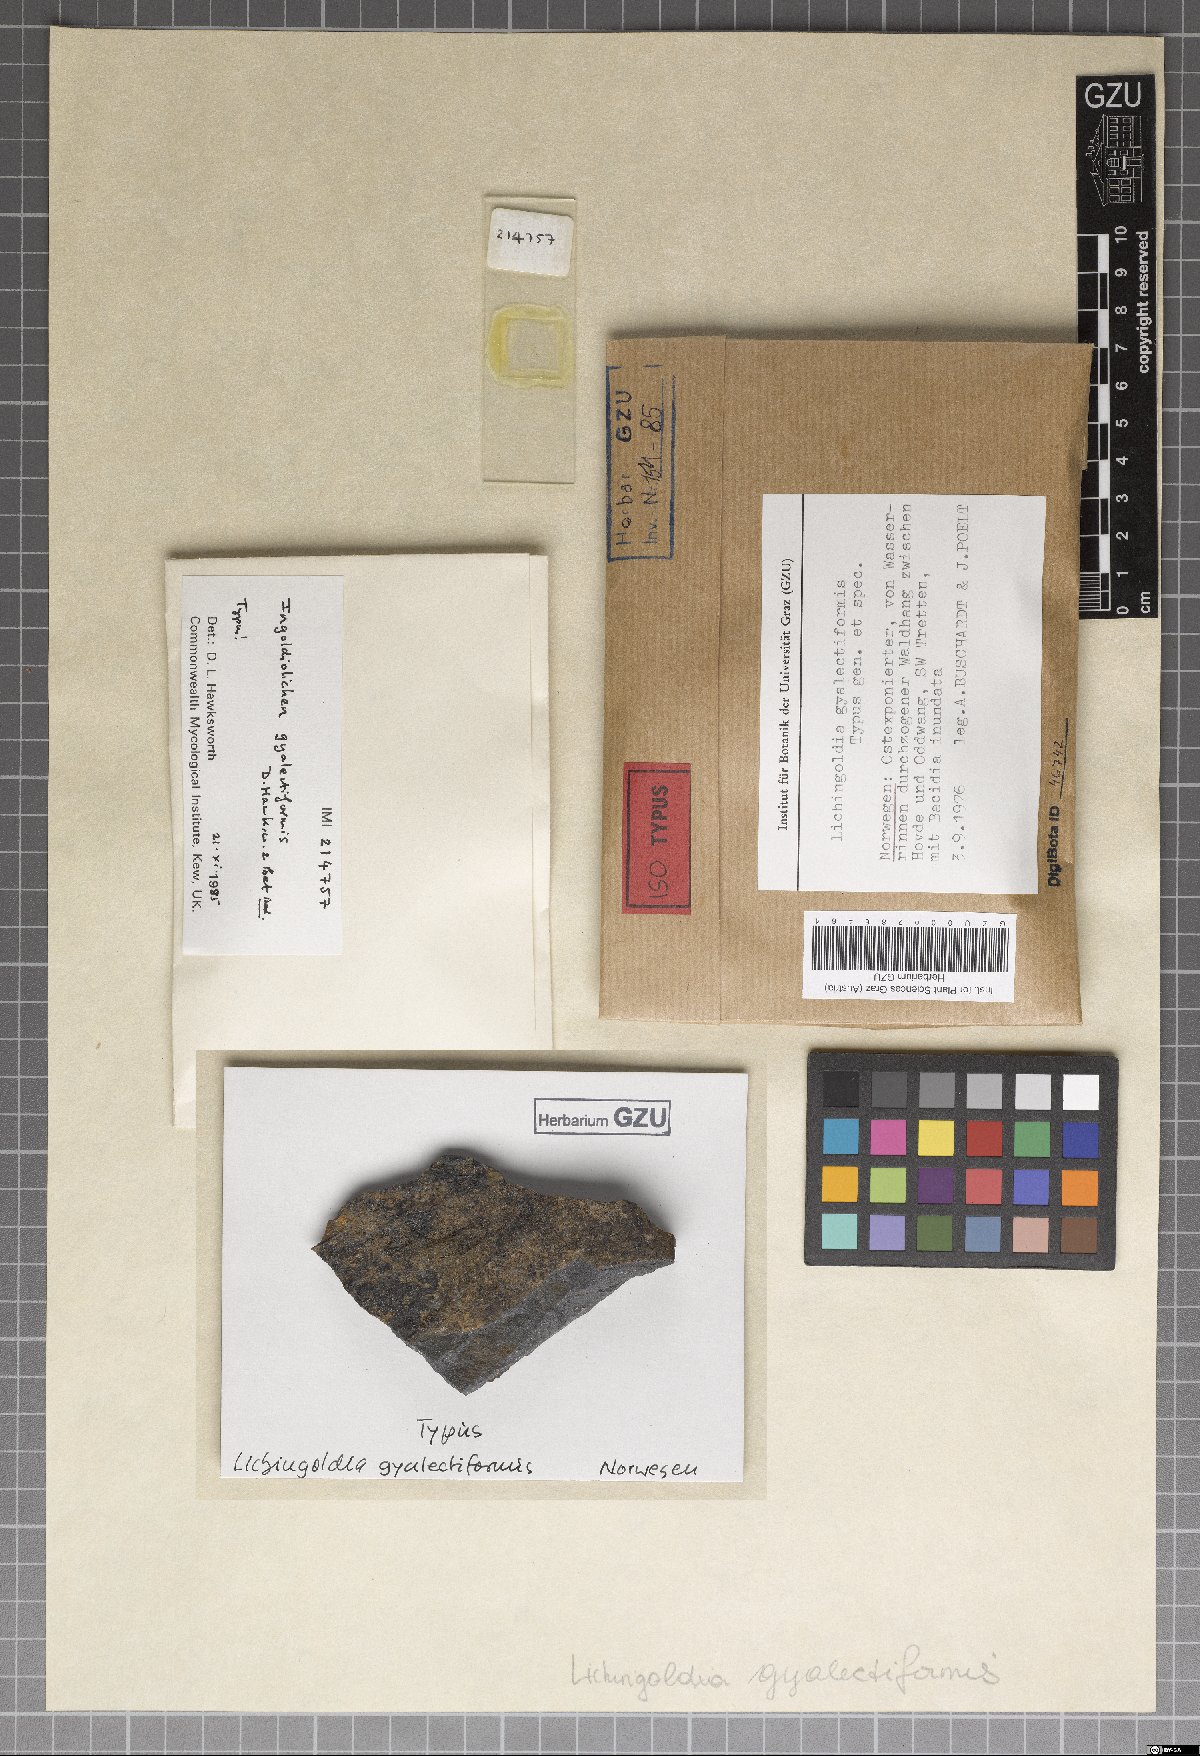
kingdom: Fungi
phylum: Ascomycota
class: Lecanoromycetes
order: Lecanorales
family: Ramalinaceae
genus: Bacidina
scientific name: Bacidina inundata
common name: Wet dot lichen
